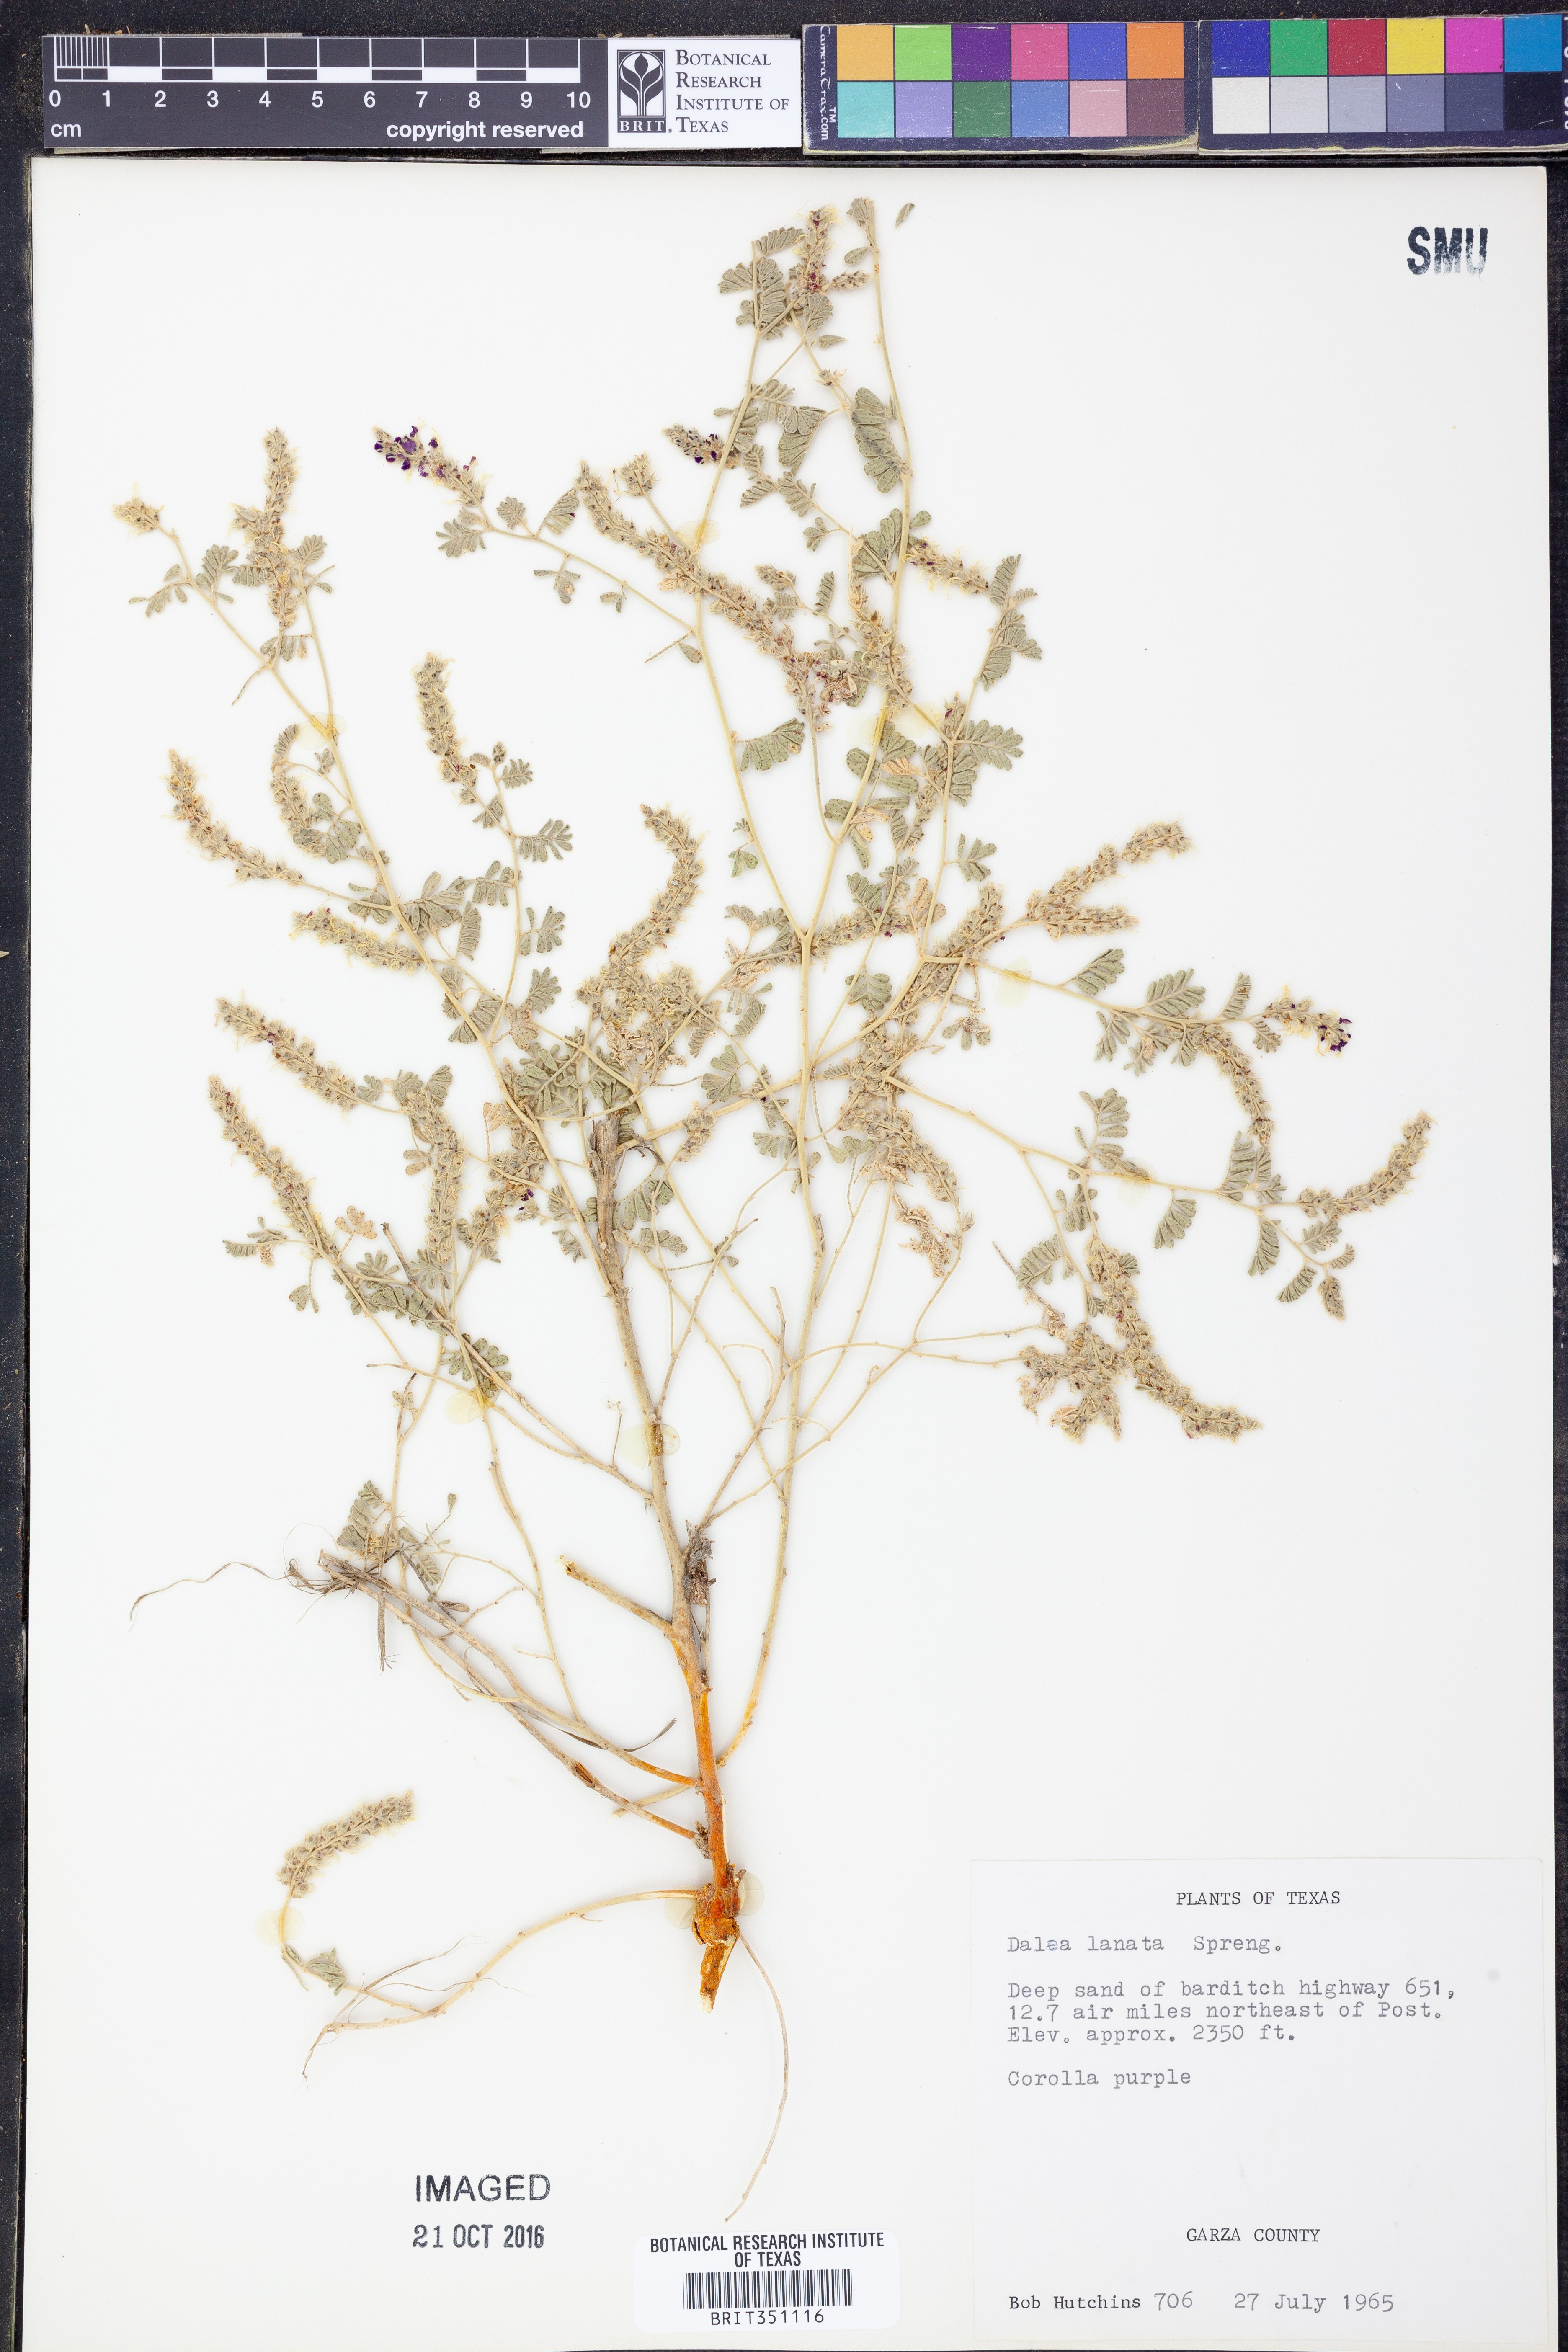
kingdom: Plantae
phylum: Tracheophyta
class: Magnoliopsida
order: Fabales
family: Fabaceae
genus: Dalea
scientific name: Dalea lanata
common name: Woolly dalea
